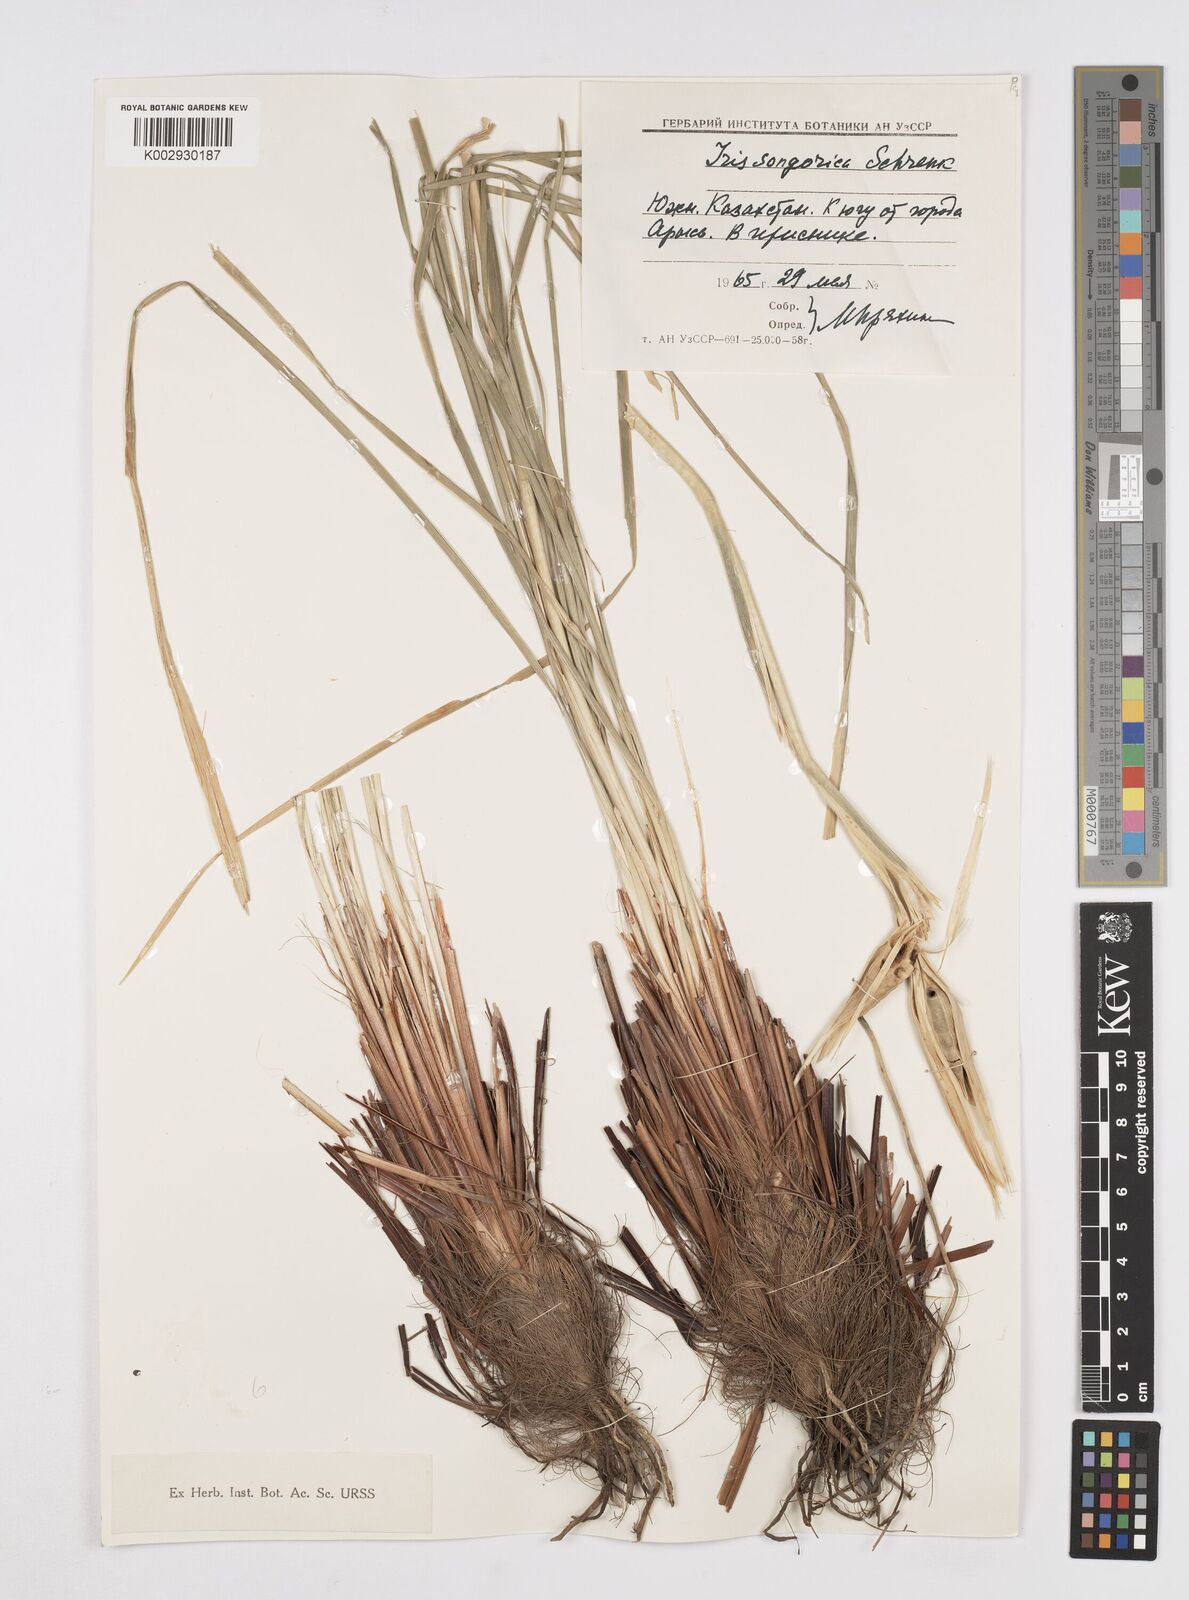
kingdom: Plantae
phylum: Tracheophyta
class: Liliopsida
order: Asparagales
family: Iridaceae
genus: Iris
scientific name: Iris songarica
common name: Songar iris
